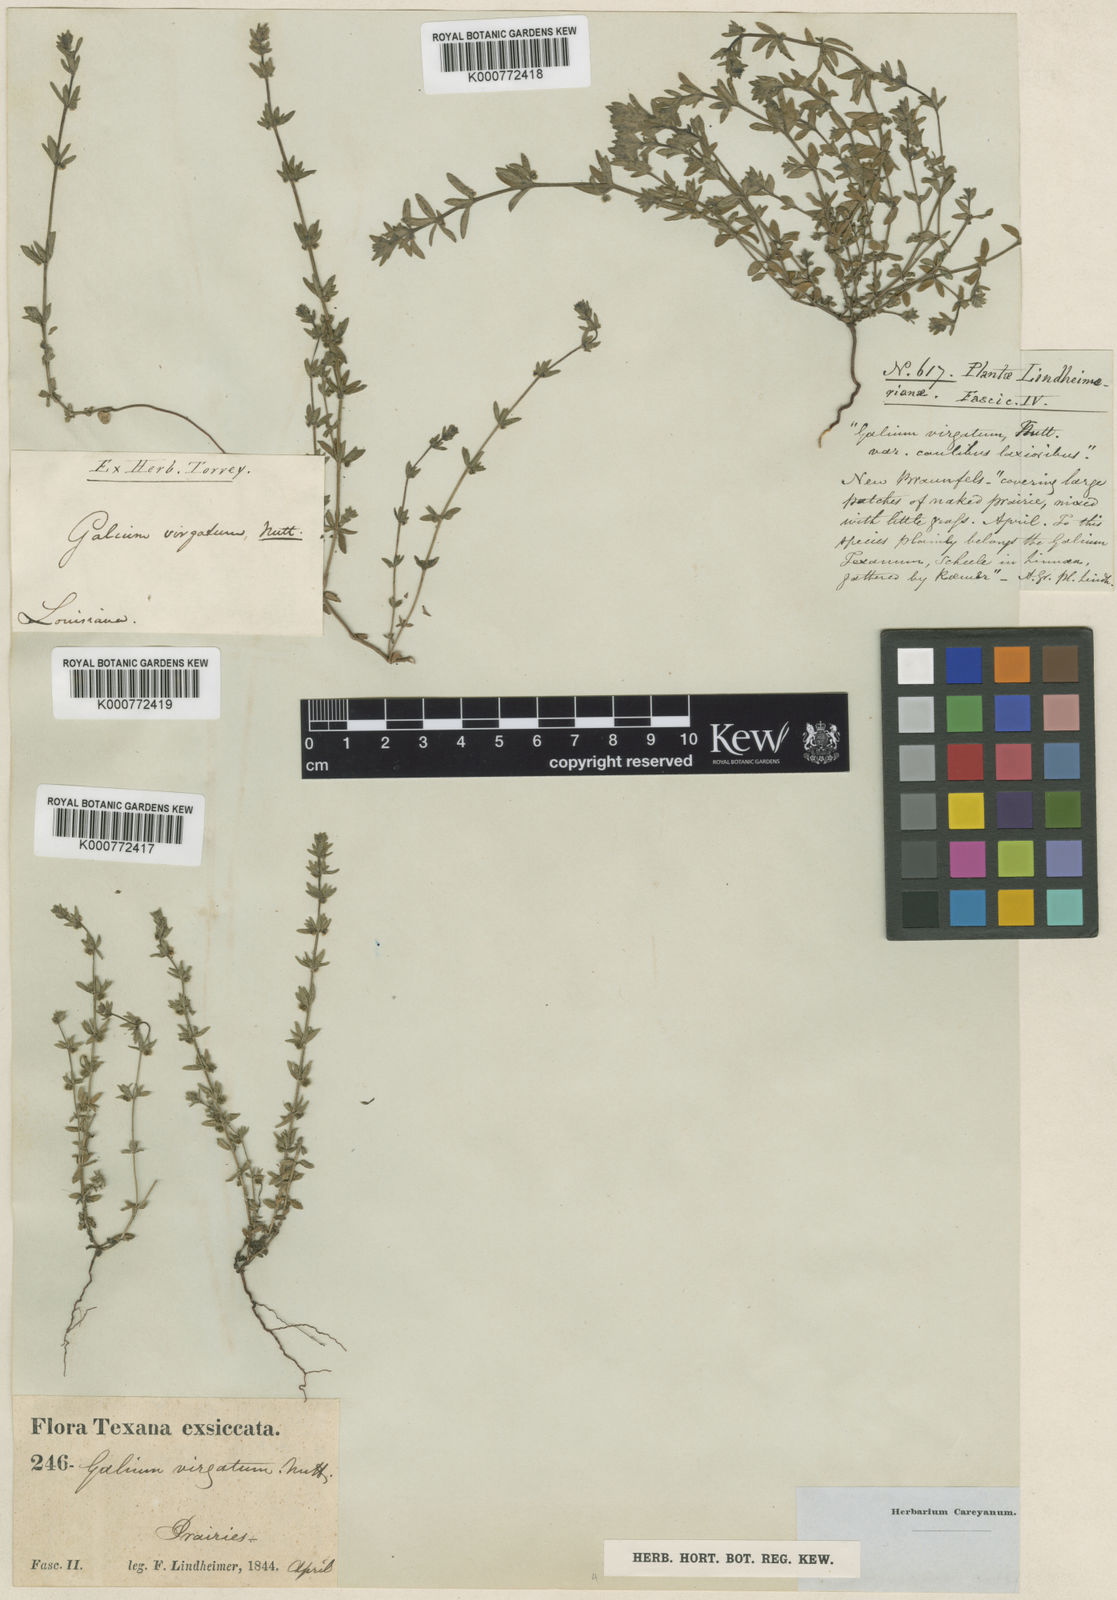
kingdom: Plantae
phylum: Tracheophyta
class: Magnoliopsida
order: Gentianales
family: Rubiaceae
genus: Galium
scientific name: Galium virgatum
